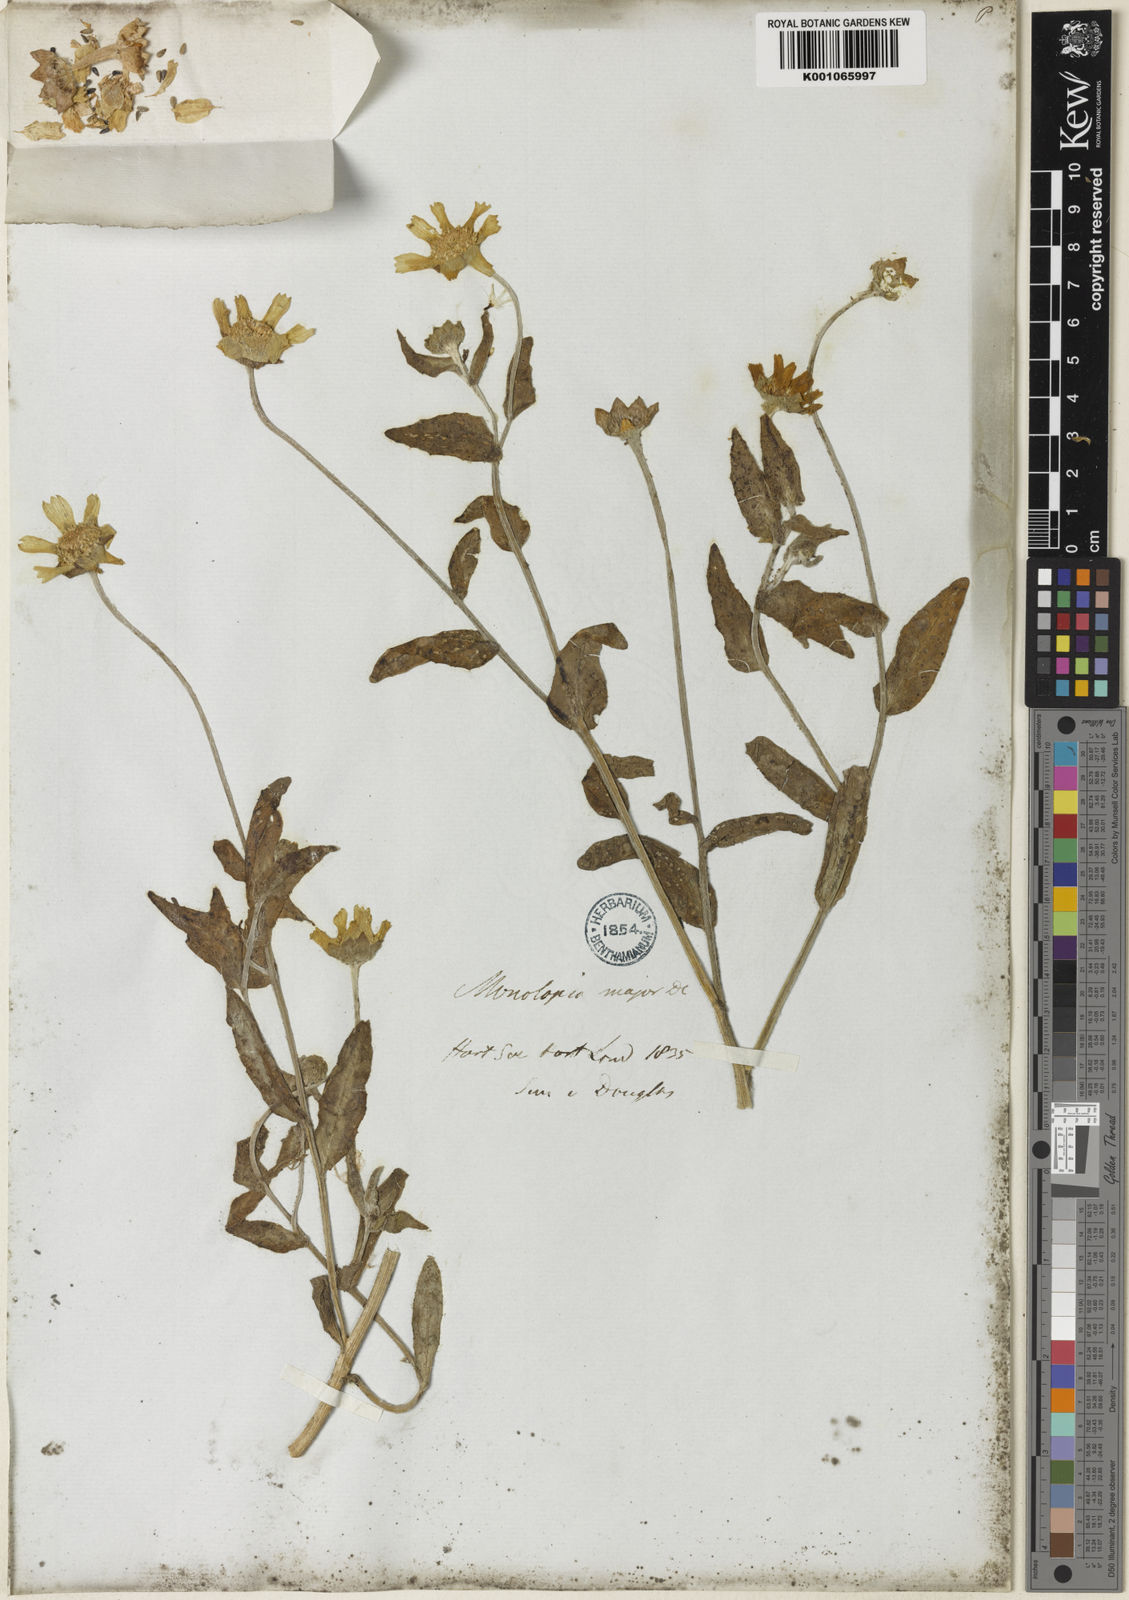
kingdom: Plantae
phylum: Tracheophyta
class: Magnoliopsida
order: Asterales
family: Asteraceae
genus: Monolopia
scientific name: Monolopia major
